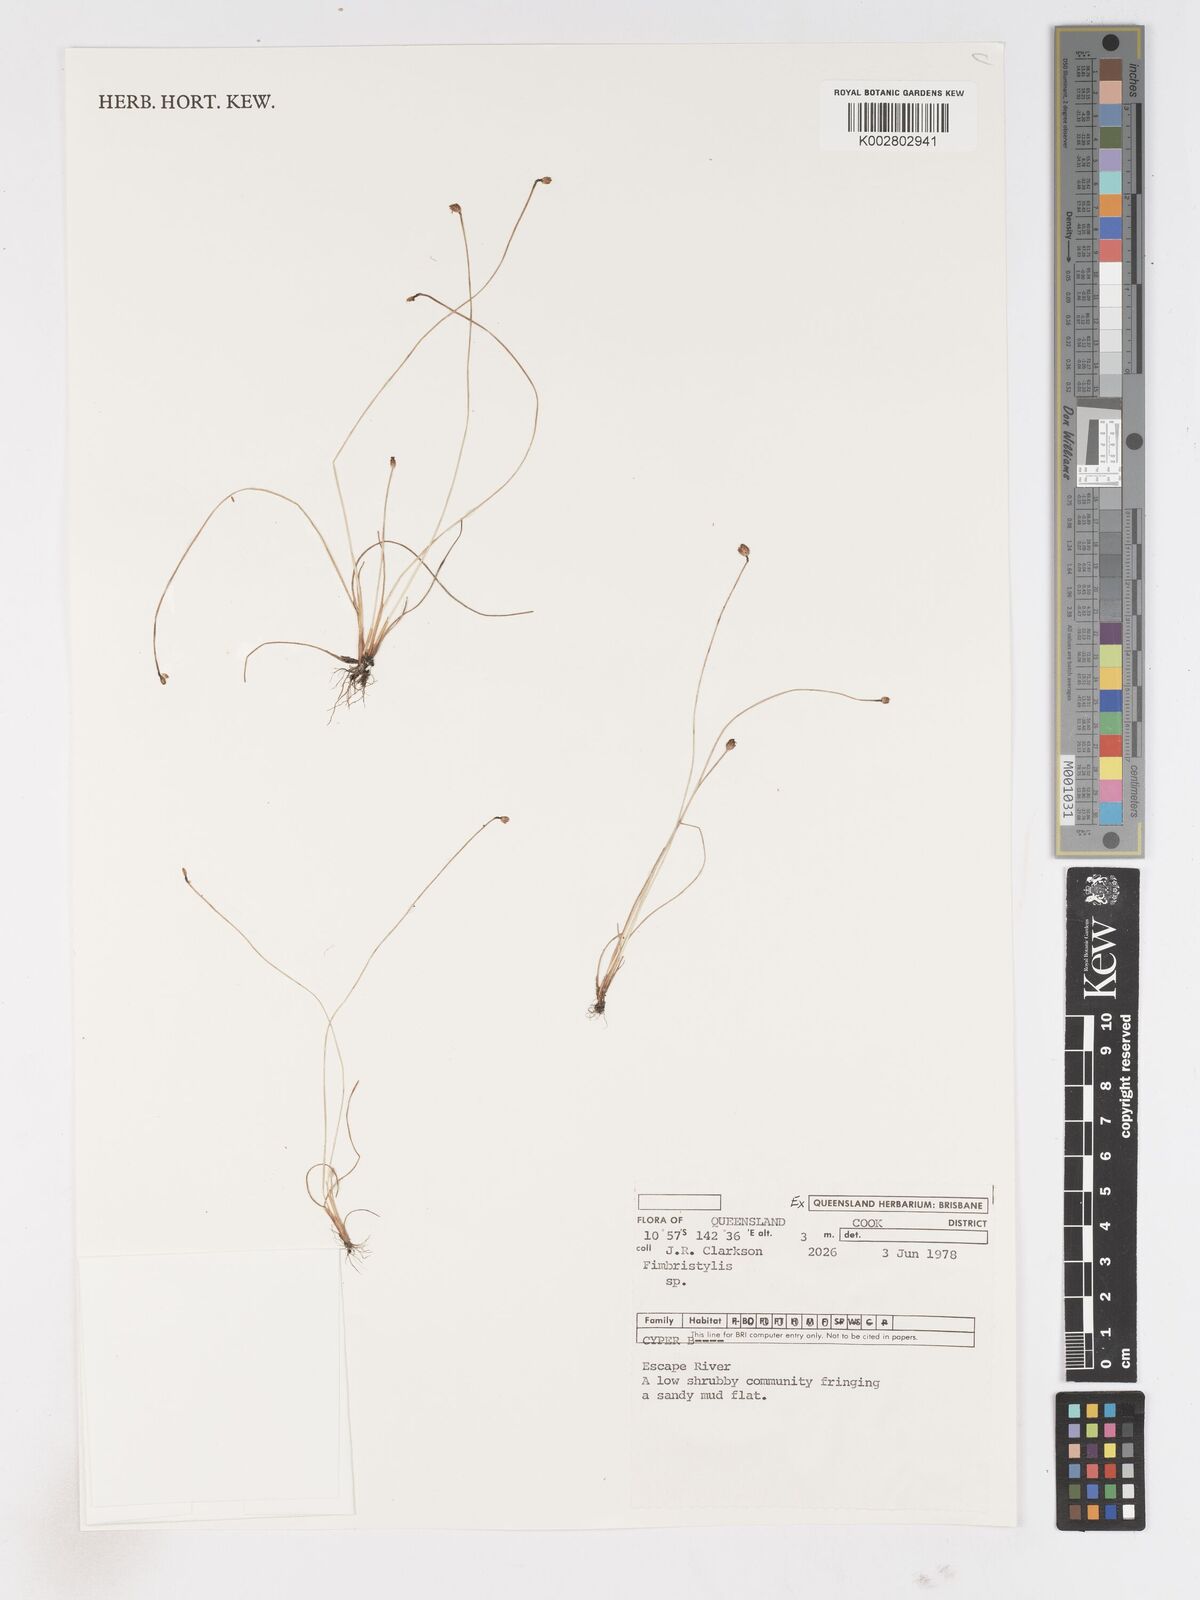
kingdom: Plantae
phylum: Tracheophyta
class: Liliopsida
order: Poales
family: Cyperaceae
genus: Fimbristylis
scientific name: Fimbristylis
